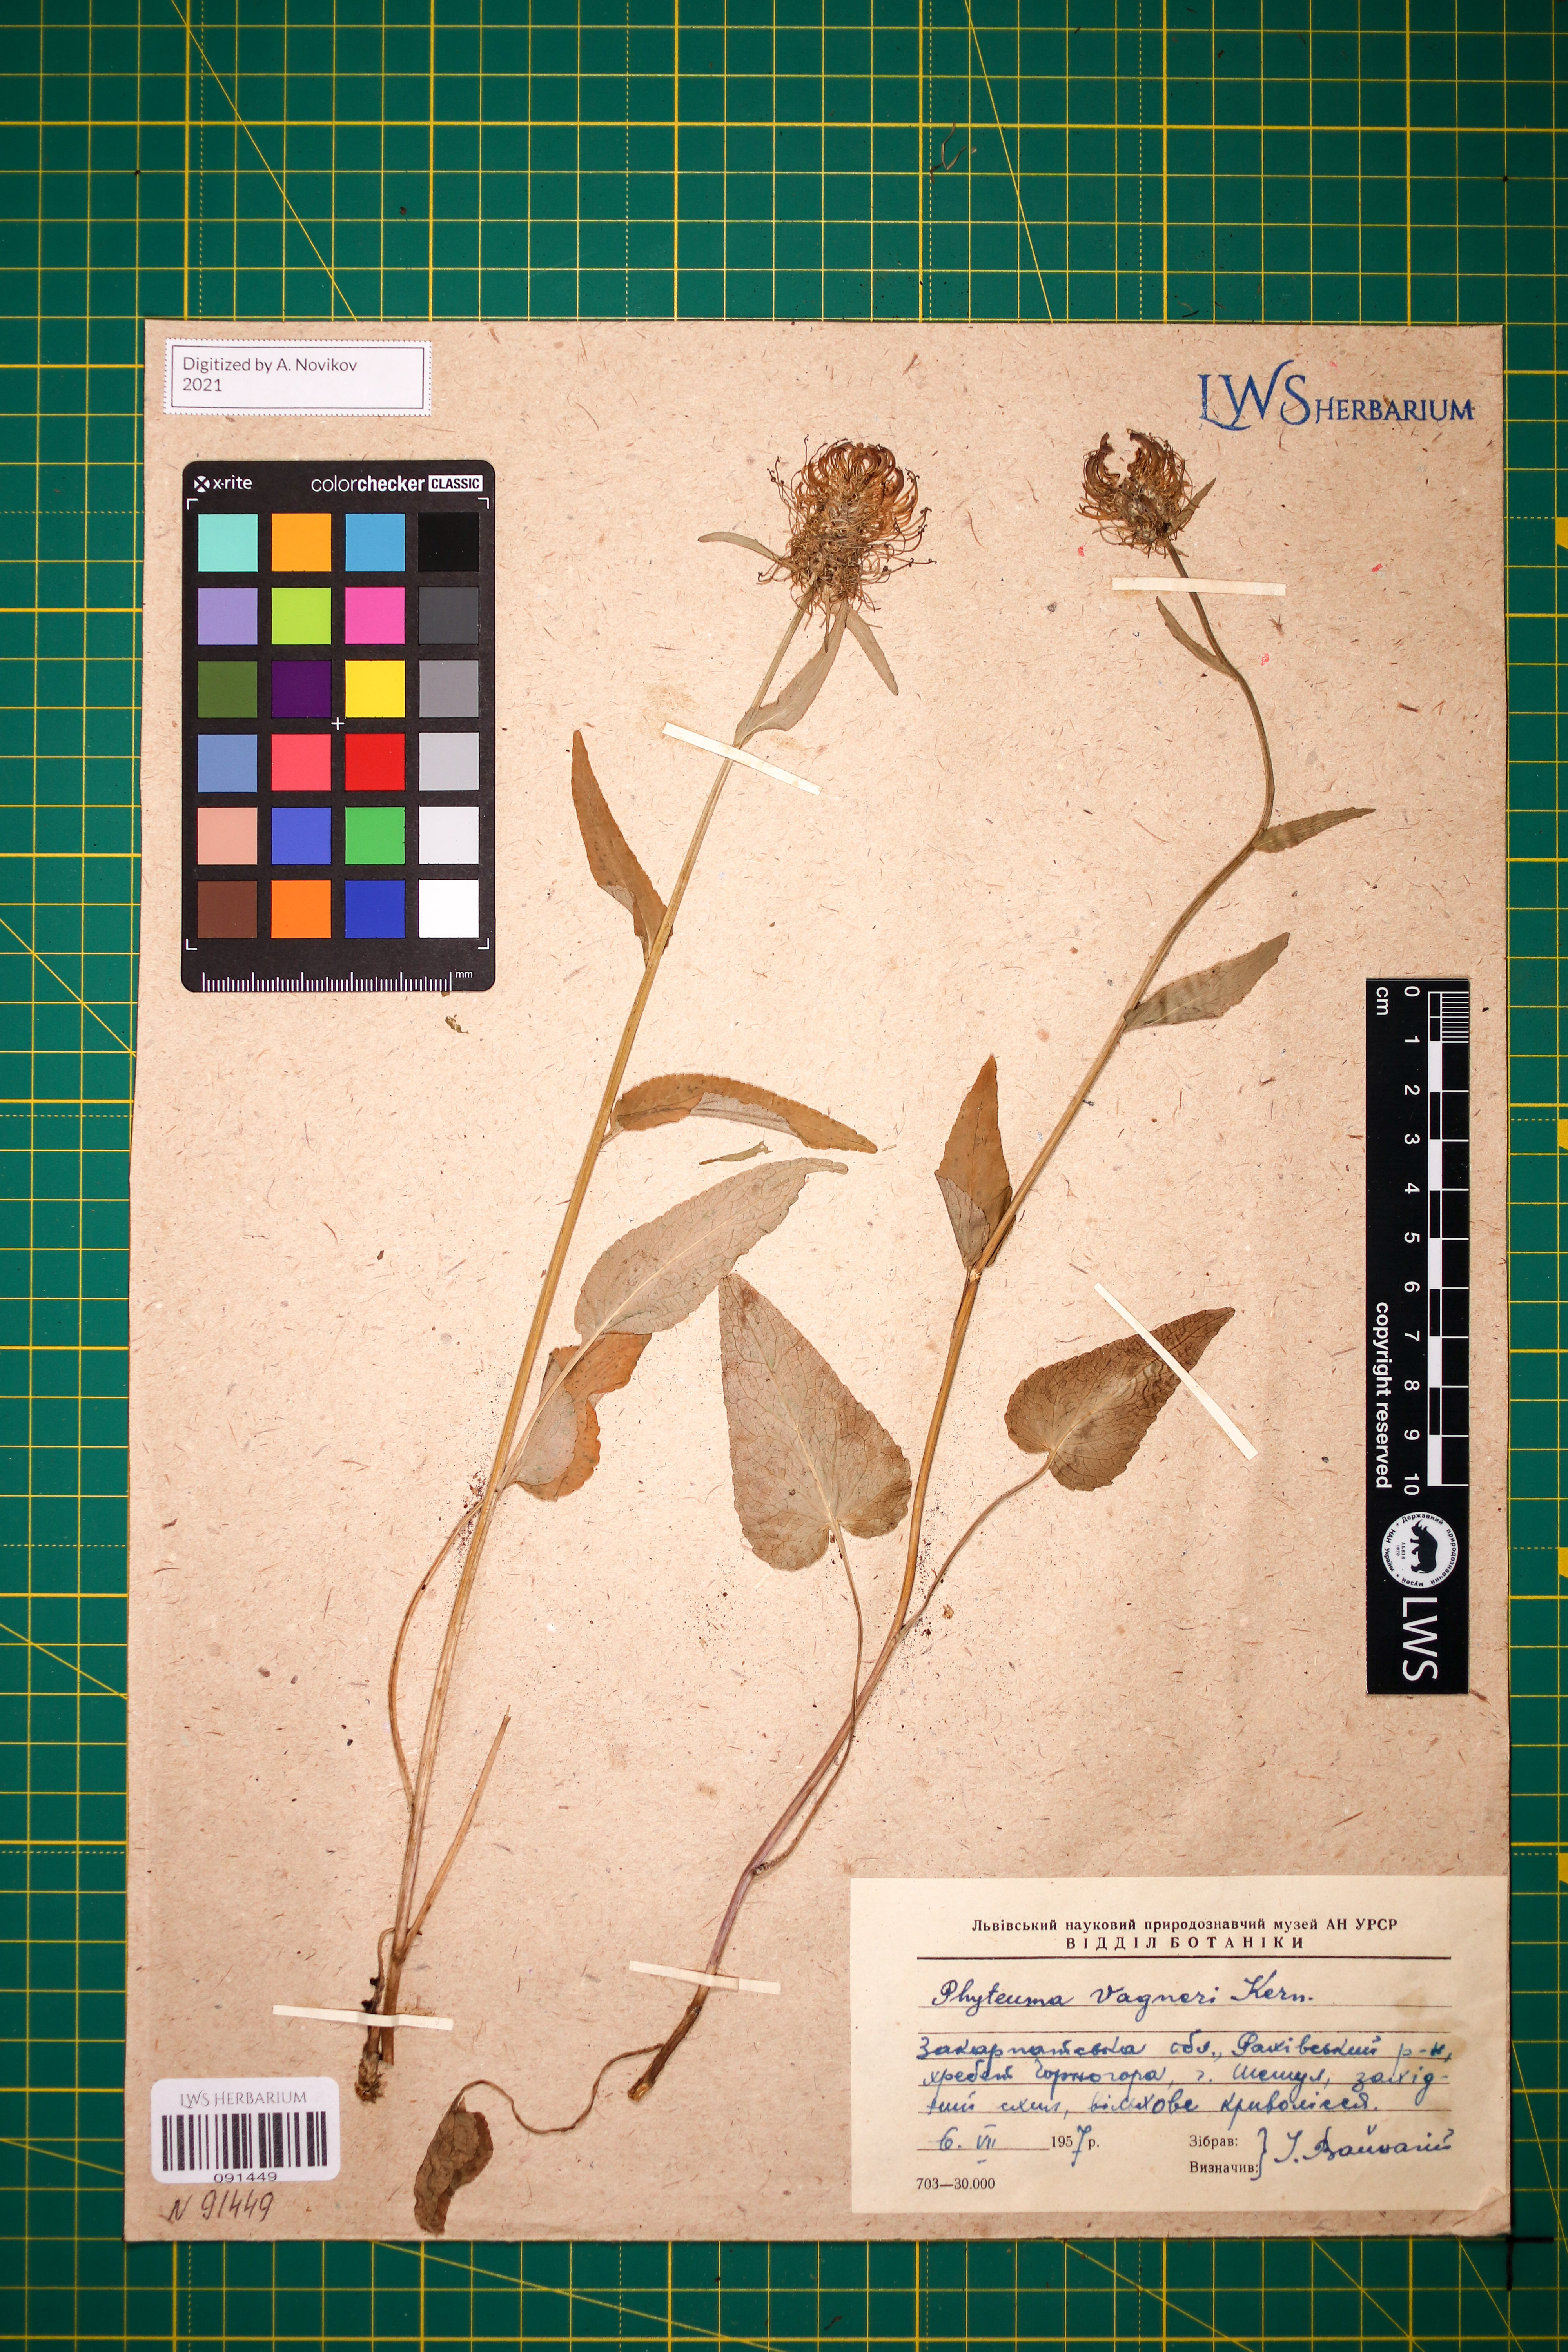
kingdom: Plantae
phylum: Tracheophyta
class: Magnoliopsida
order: Asterales
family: Campanulaceae
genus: Phyteuma
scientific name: Phyteuma vagneri
